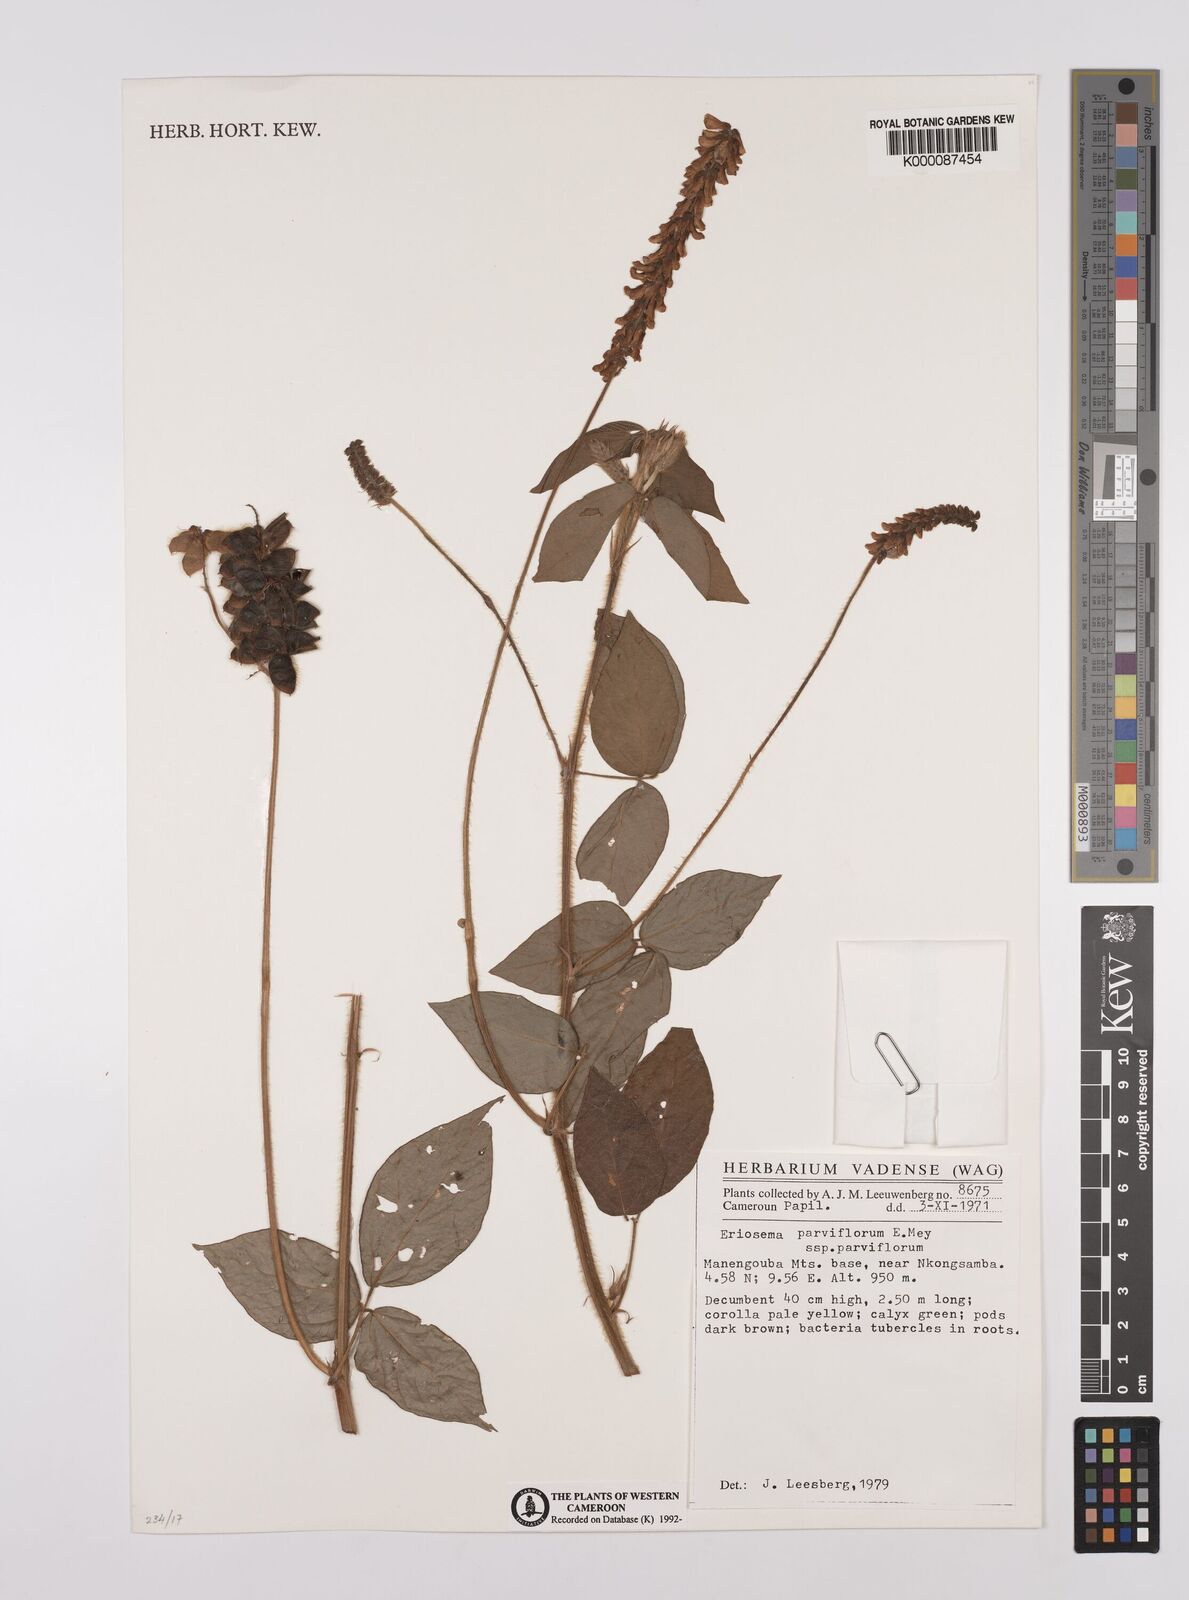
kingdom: Plantae
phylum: Tracheophyta
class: Magnoliopsida
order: Fabales
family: Fabaceae
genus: Eriosema
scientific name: Eriosema parviflorum
